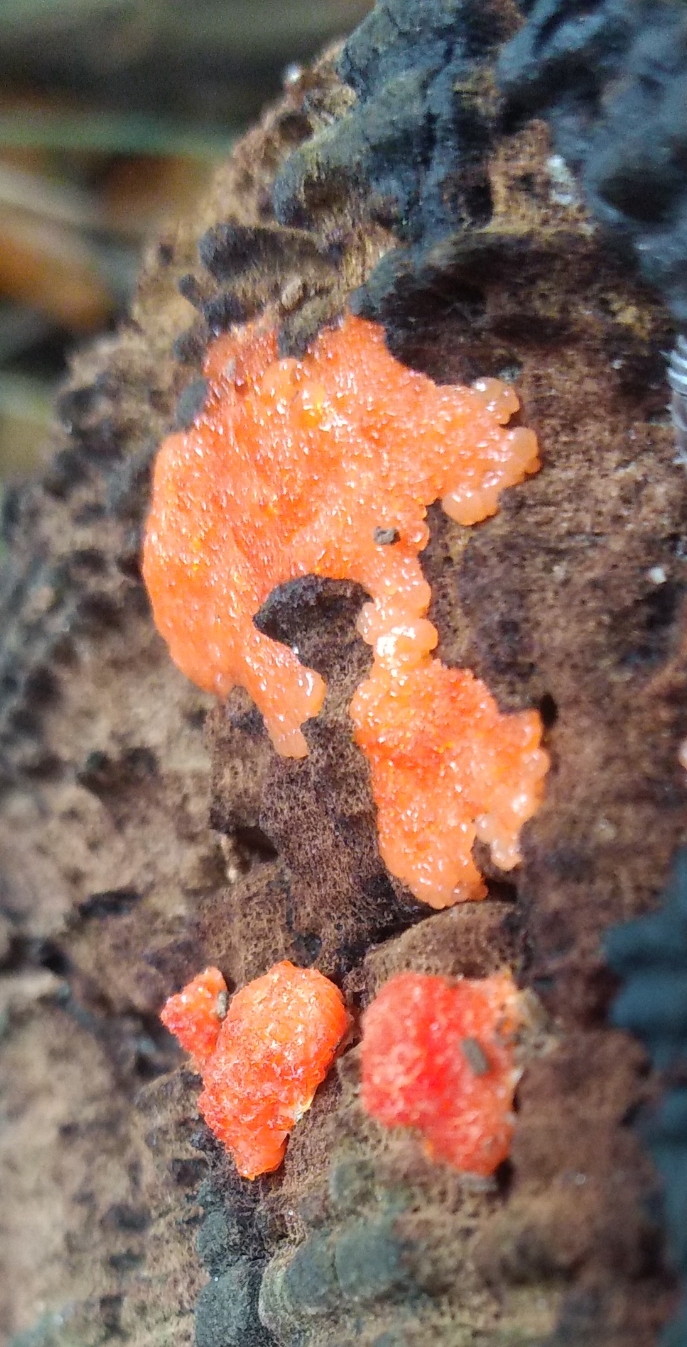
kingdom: Protozoa
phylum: Mycetozoa
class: Myxomycetes
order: Cribrariales
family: Tubiferaceae
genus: Tubifera
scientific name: Tubifera ferruginosa
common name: kanel-støvrør
